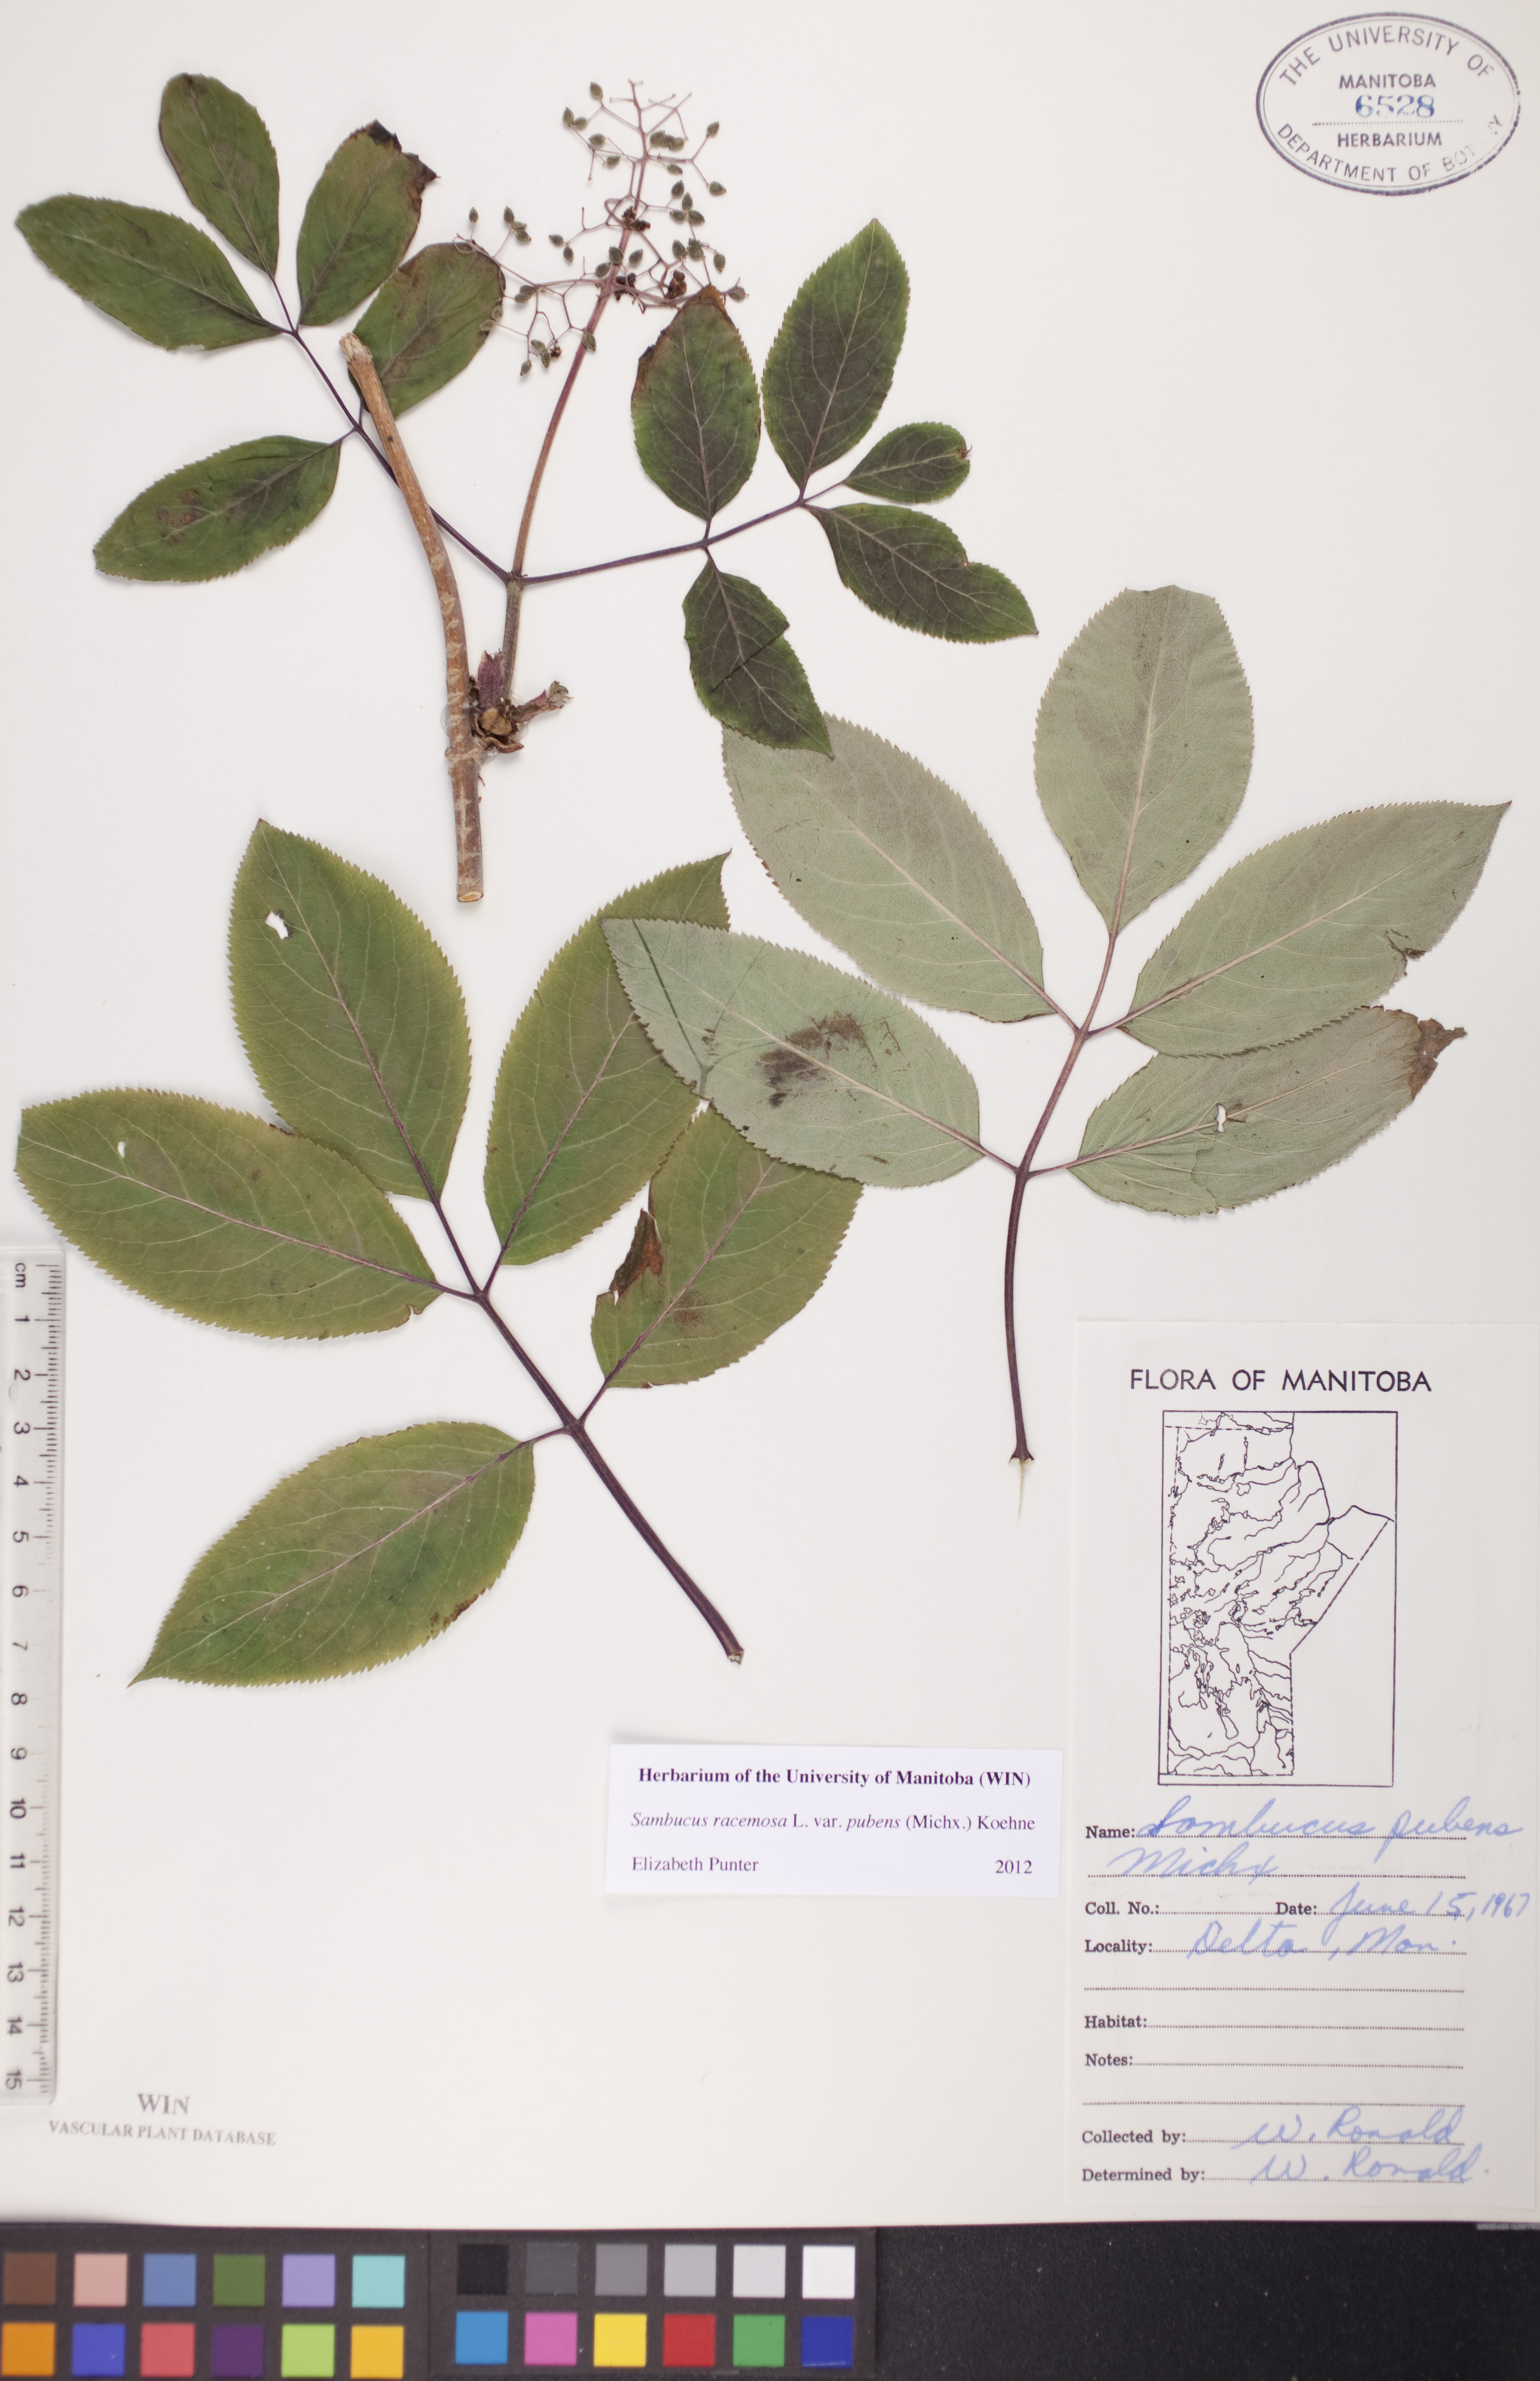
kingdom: Plantae
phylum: Tracheophyta
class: Magnoliopsida
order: Dipsacales
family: Viburnaceae
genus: Sambucus
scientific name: Sambucus racemosa
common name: Red-berried elder
